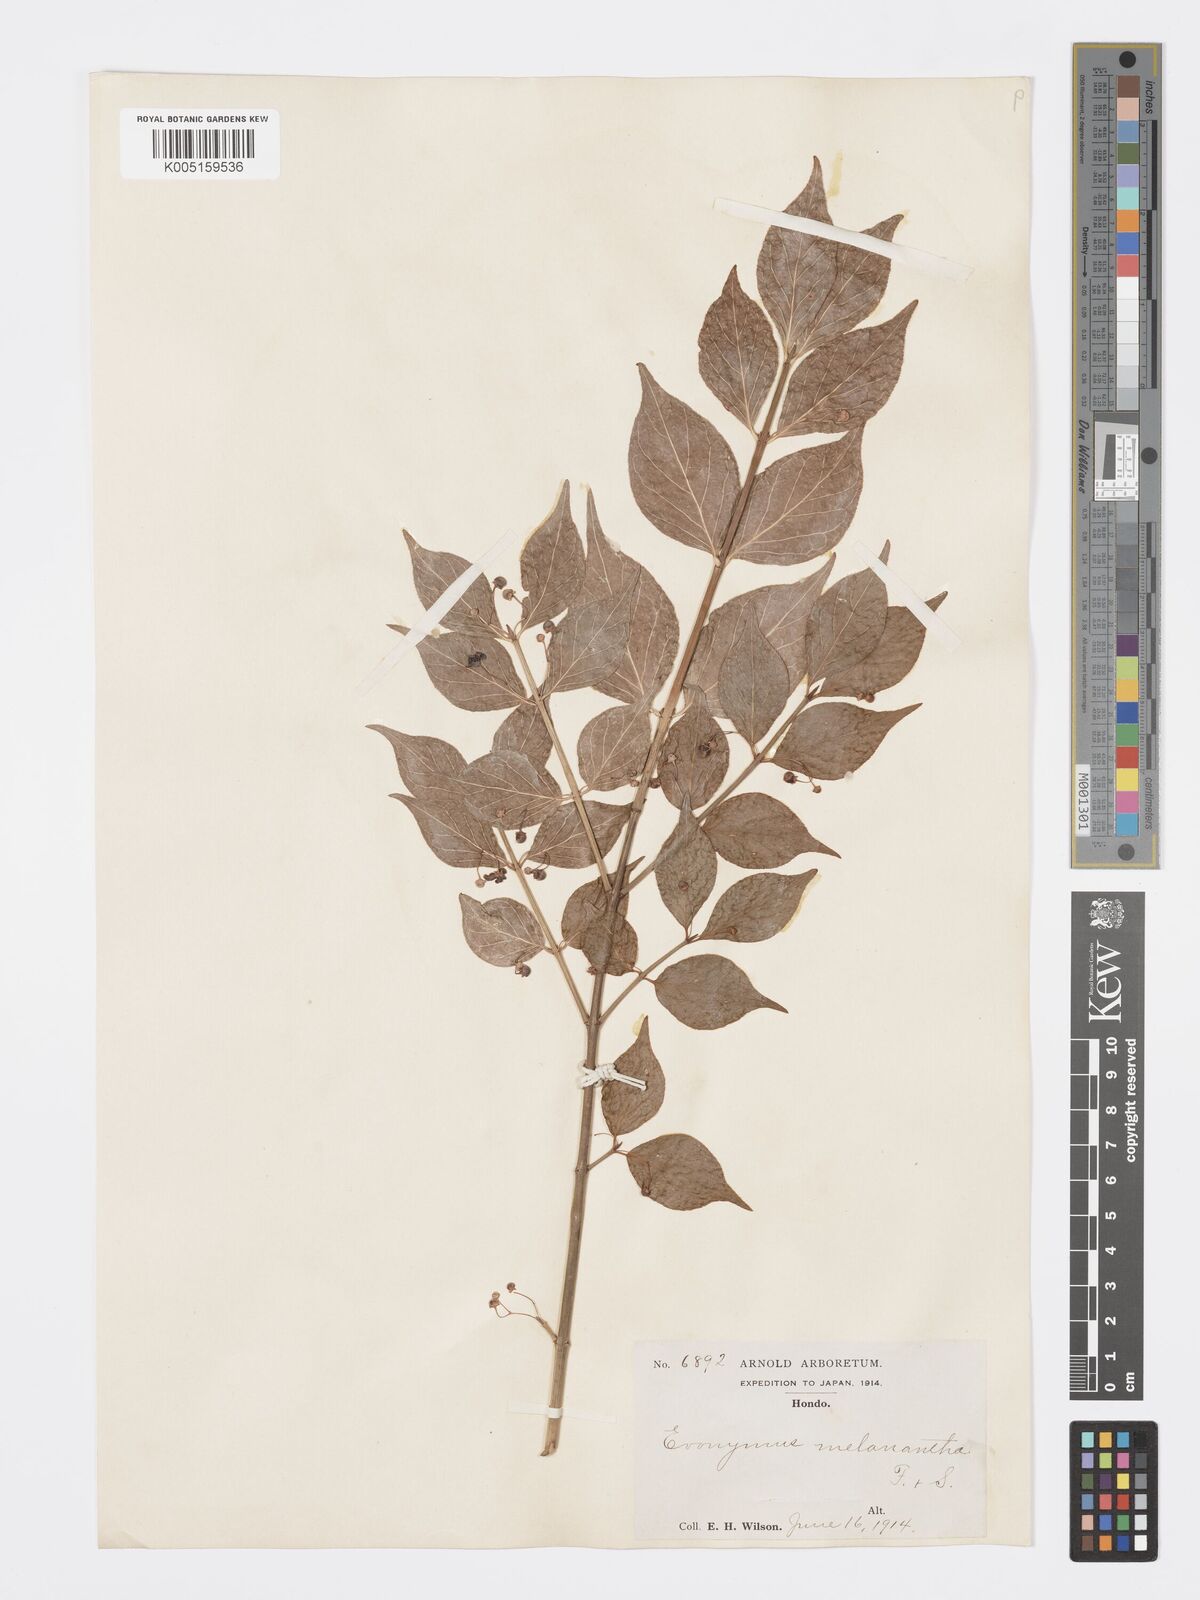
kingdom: Plantae
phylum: Tracheophyta
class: Magnoliopsida
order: Celastrales
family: Celastraceae
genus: Euonymus
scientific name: Euonymus melananthus
